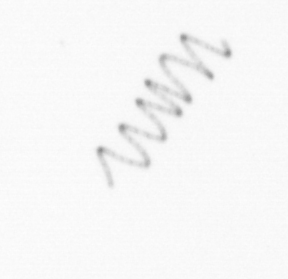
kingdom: Chromista
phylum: Ochrophyta
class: Bacillariophyceae
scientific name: Bacillariophyceae
